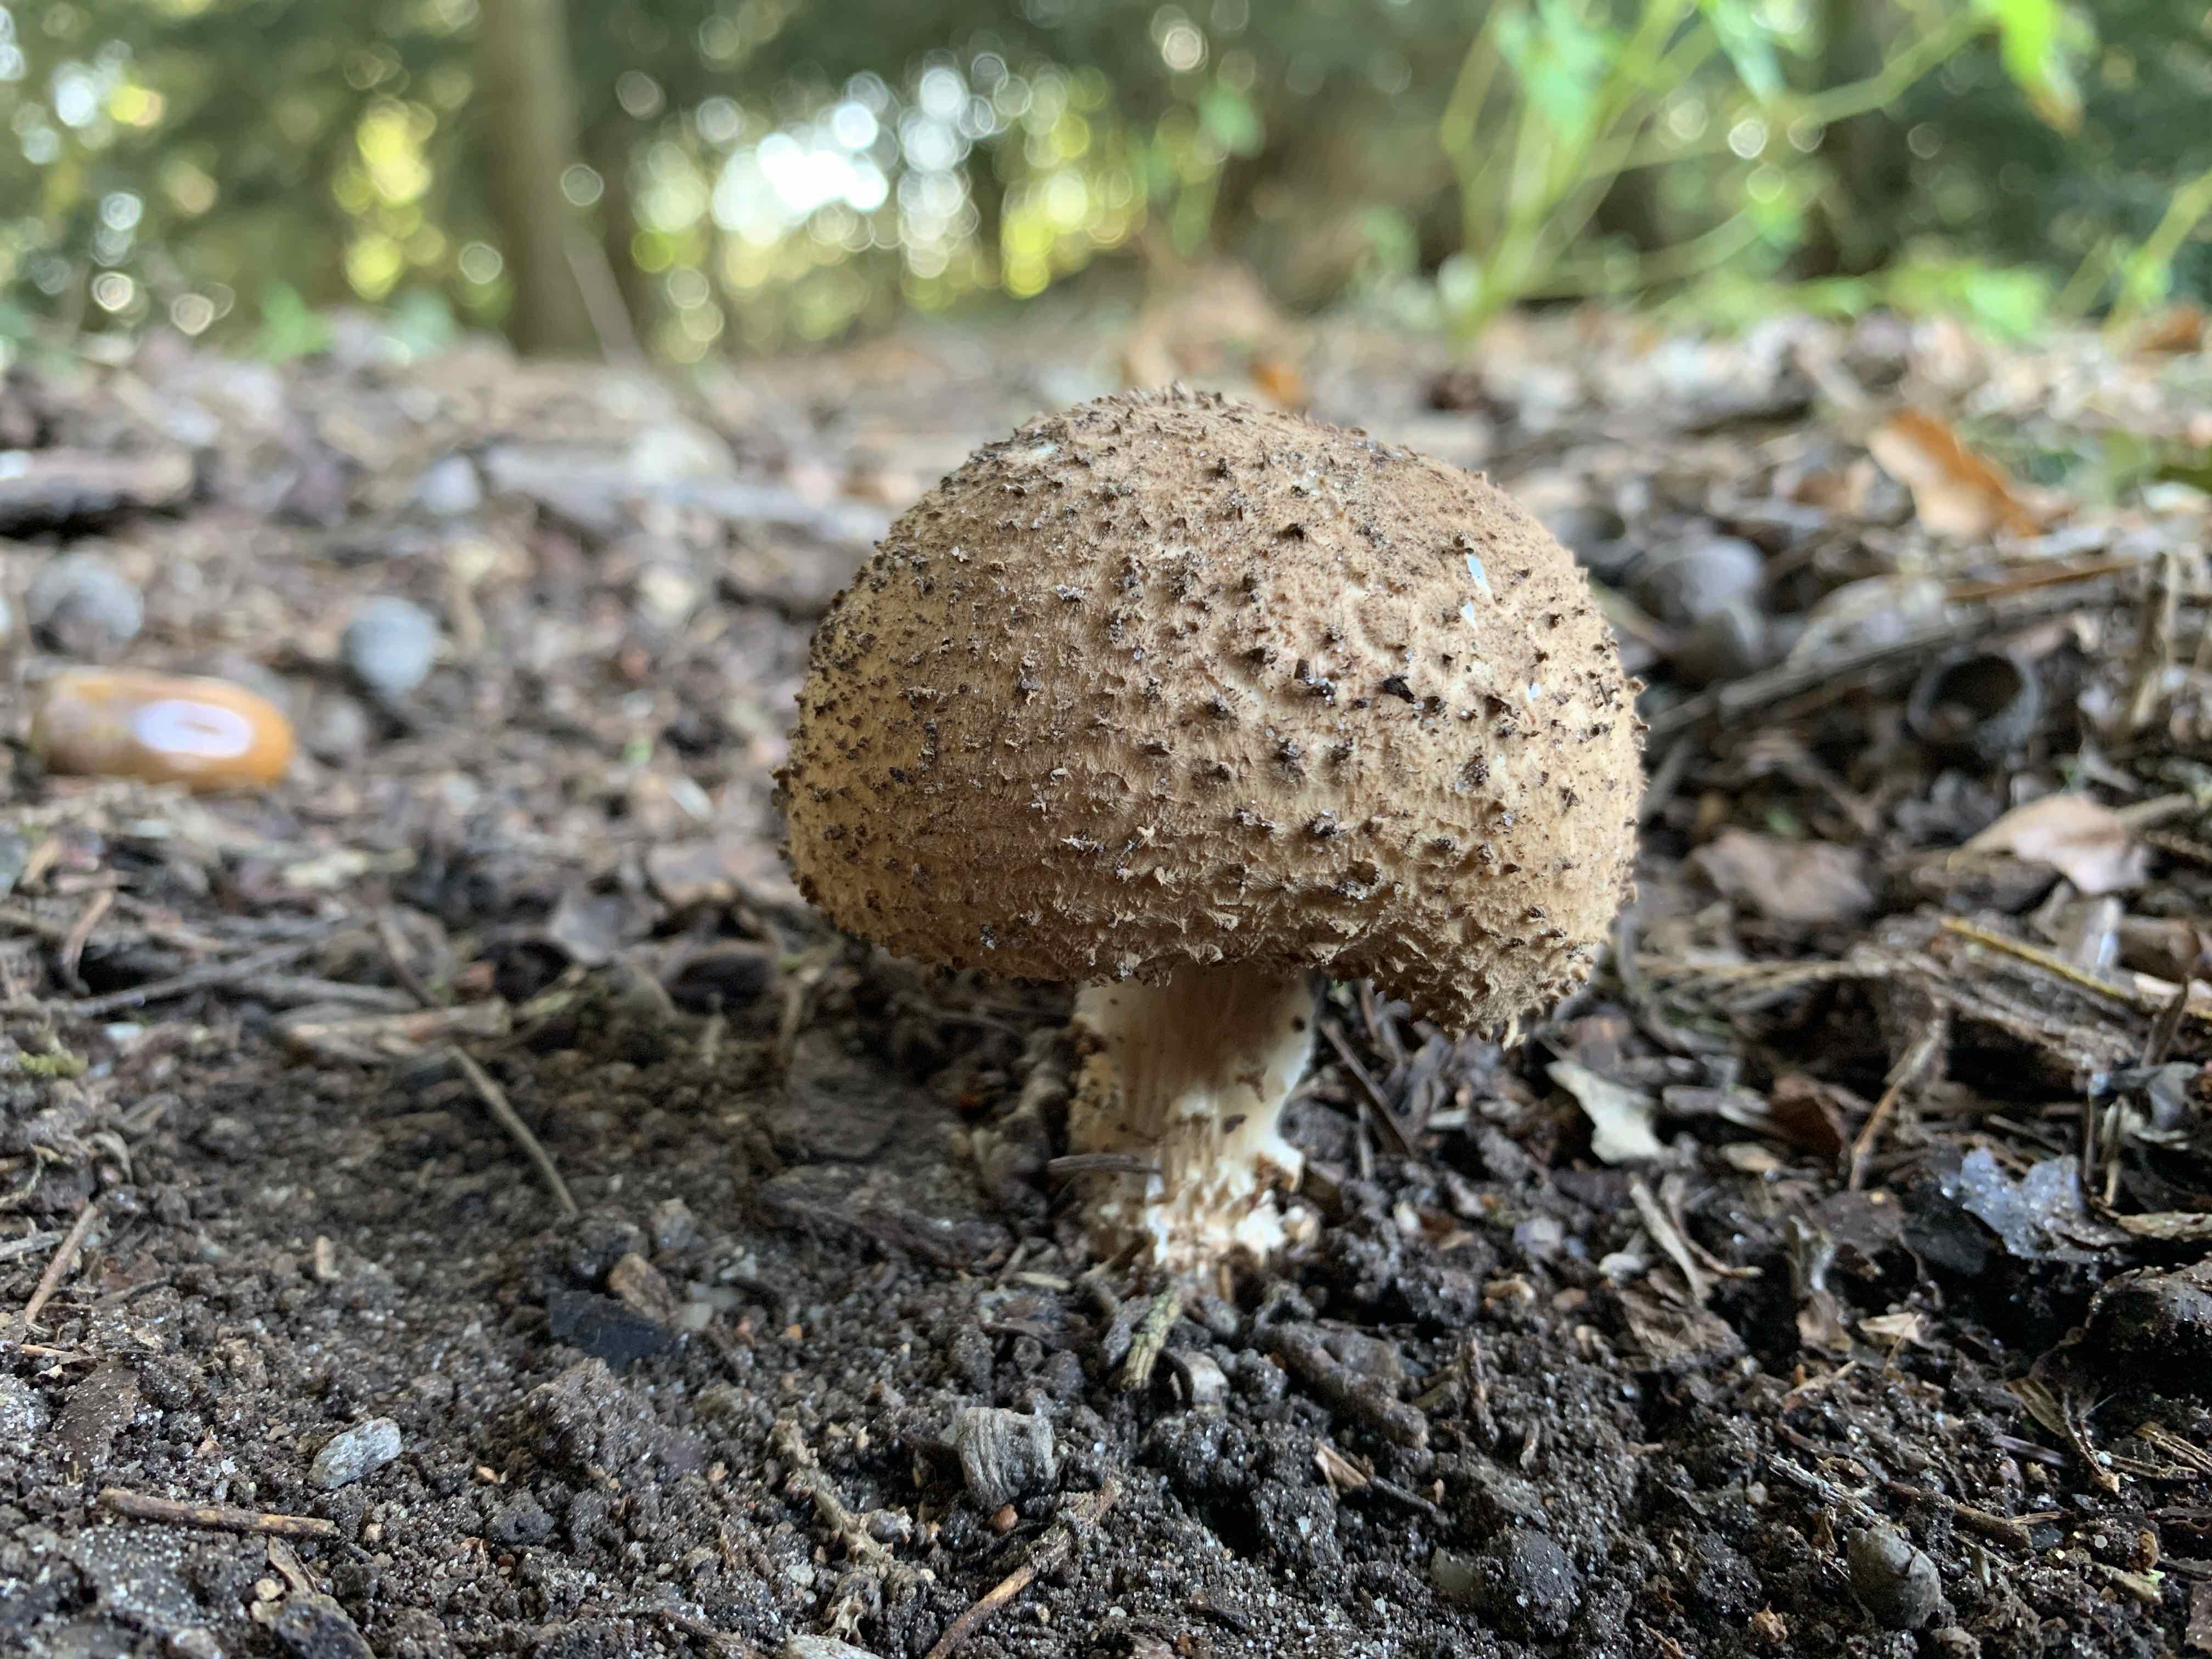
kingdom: Fungi
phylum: Basidiomycota
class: Agaricomycetes
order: Agaricales
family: Agaricaceae
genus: Echinoderma
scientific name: Echinoderma asperum
